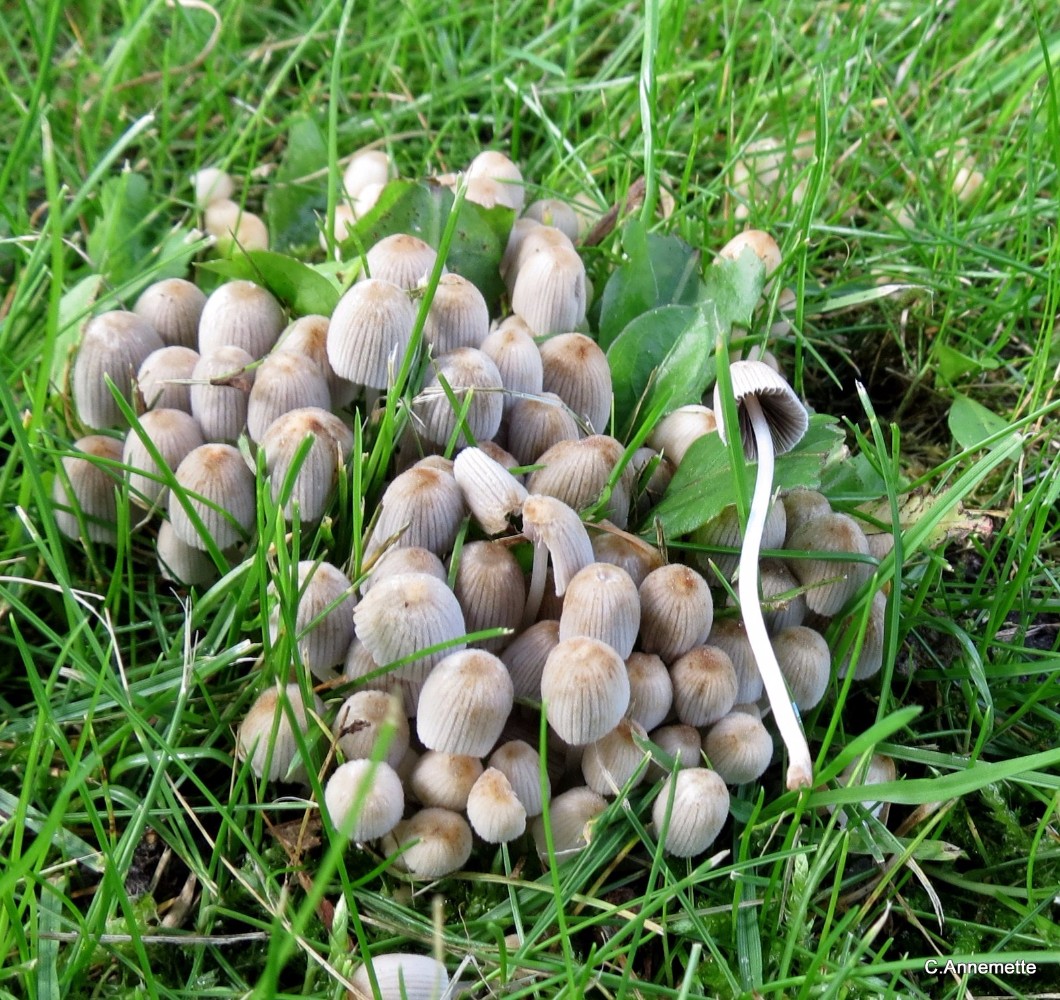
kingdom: Fungi
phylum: Basidiomycota
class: Agaricomycetes
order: Agaricales
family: Psathyrellaceae
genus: Coprinellus
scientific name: Coprinellus disseminatus
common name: bredsået blækhat
